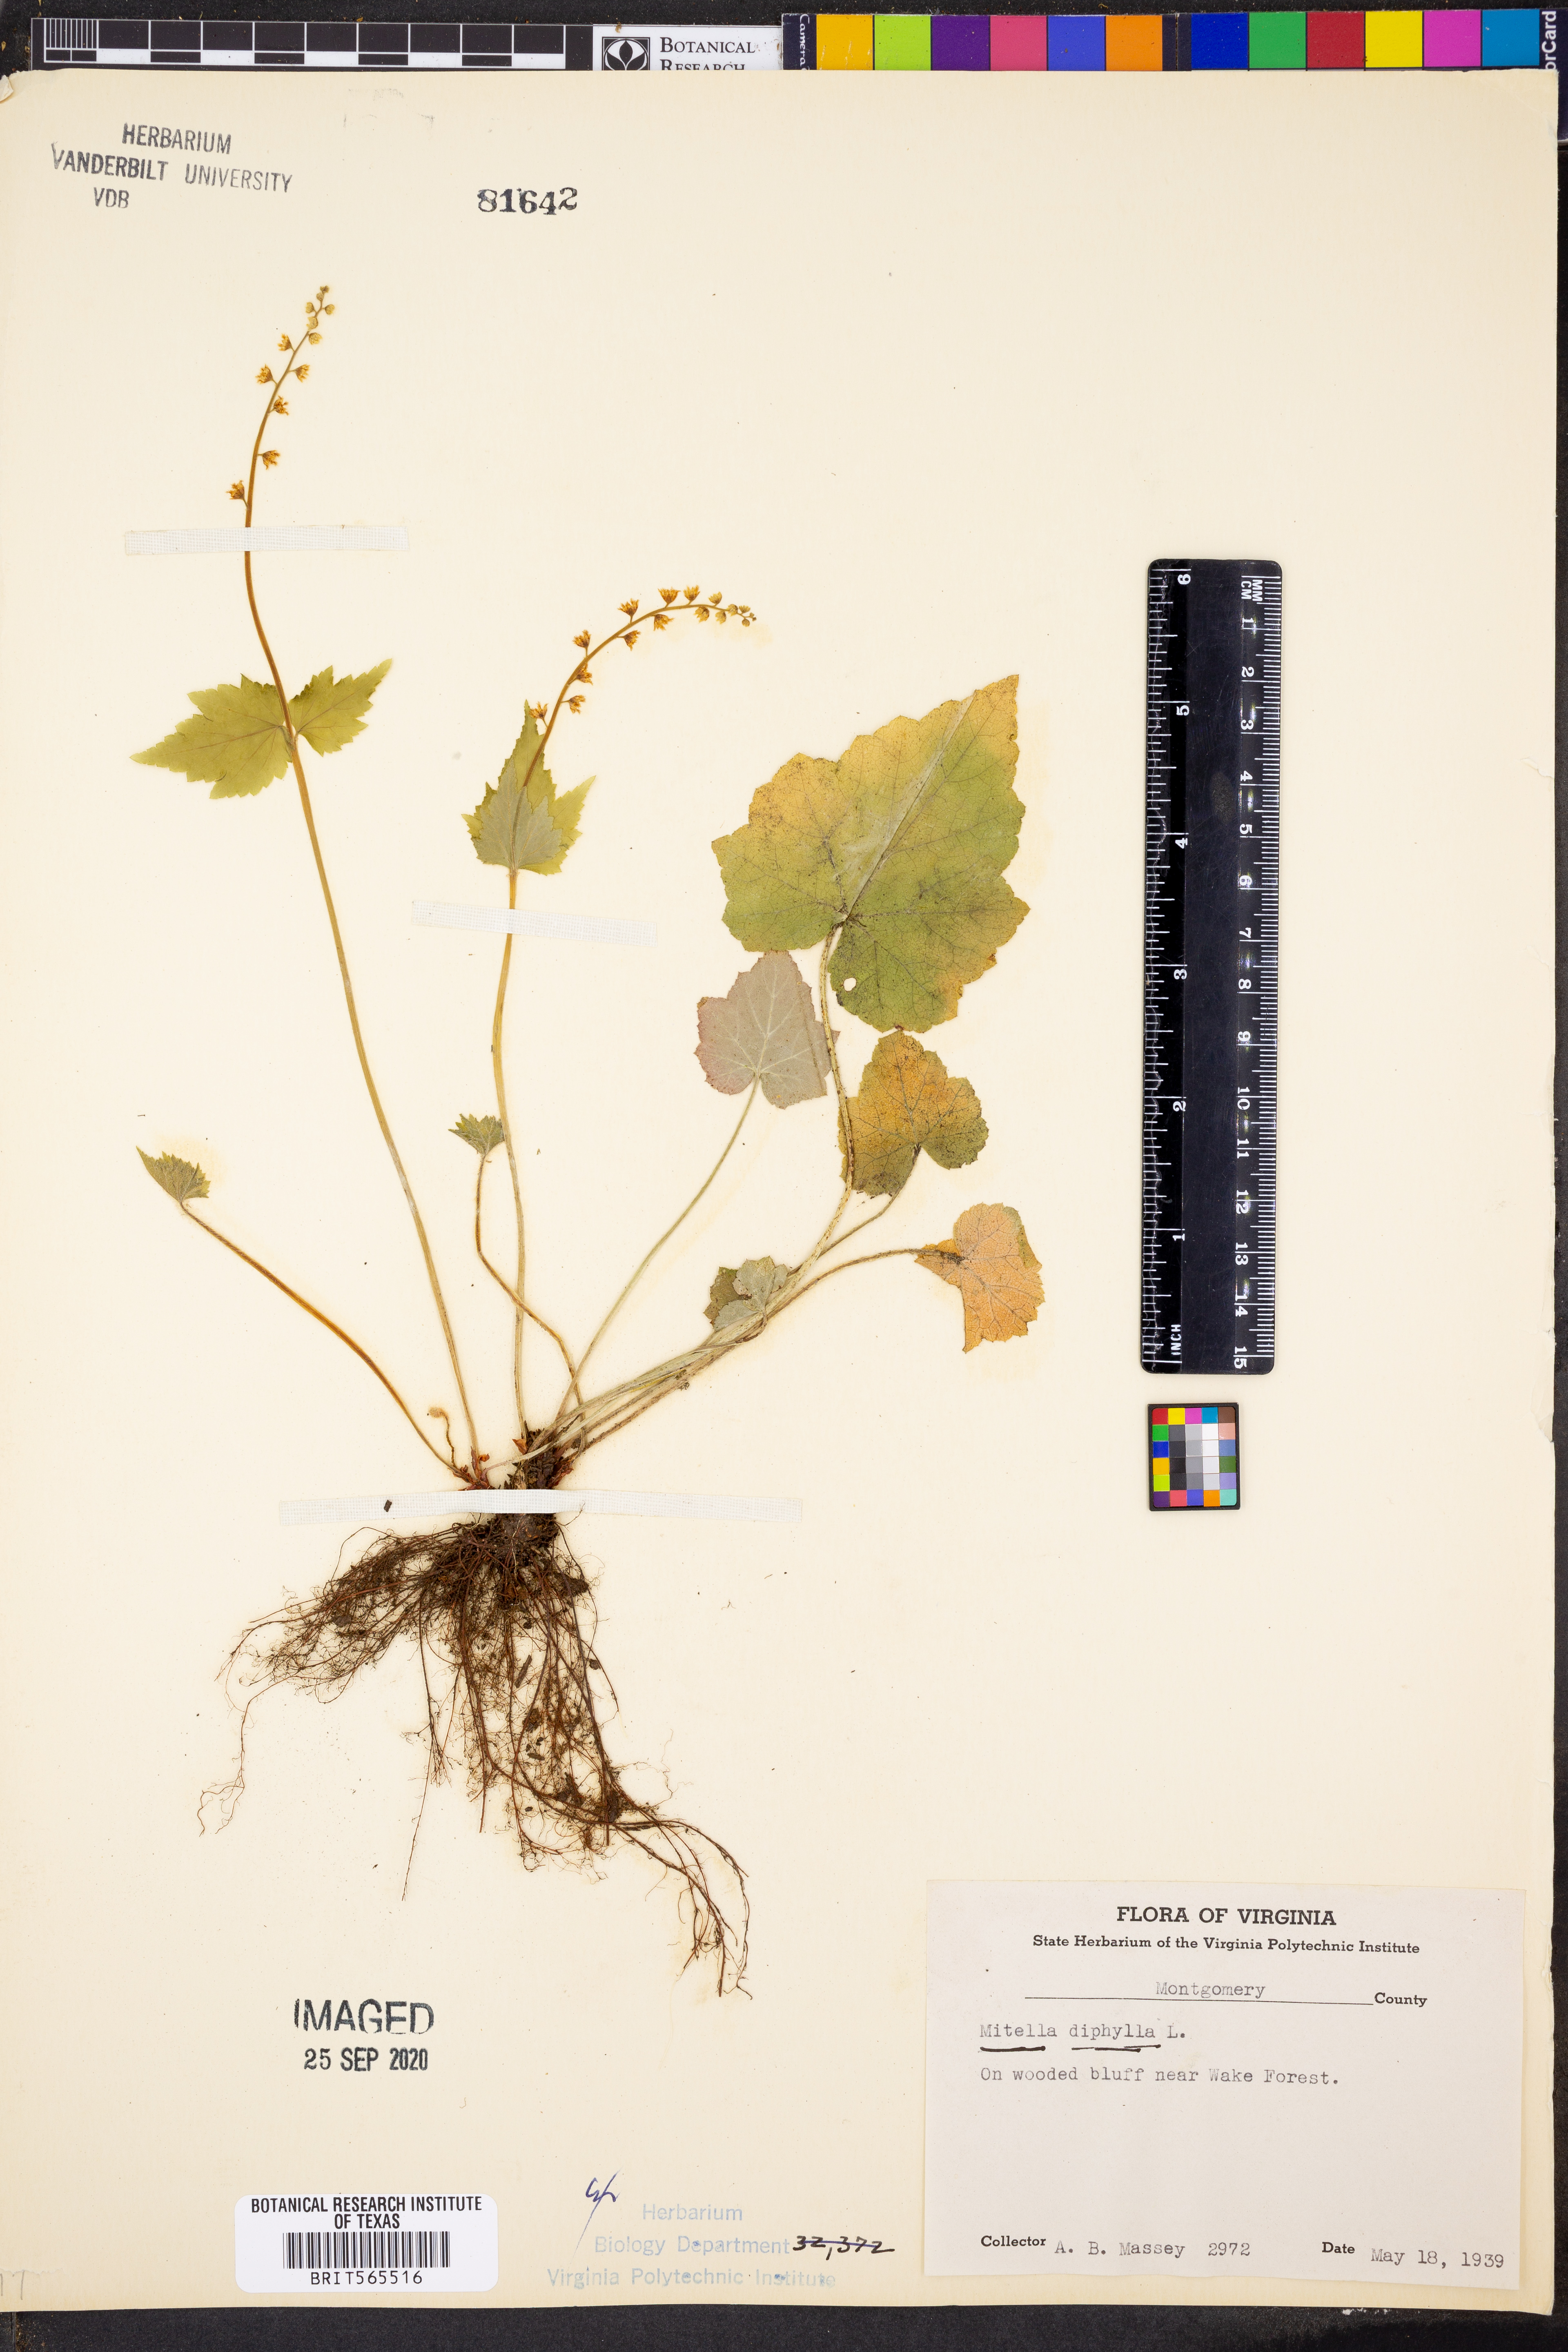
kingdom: Plantae
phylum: Tracheophyta
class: Magnoliopsida
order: Saxifragales
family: Saxifragaceae
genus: Mitella
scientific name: Mitella diphylla
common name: Coolwort
